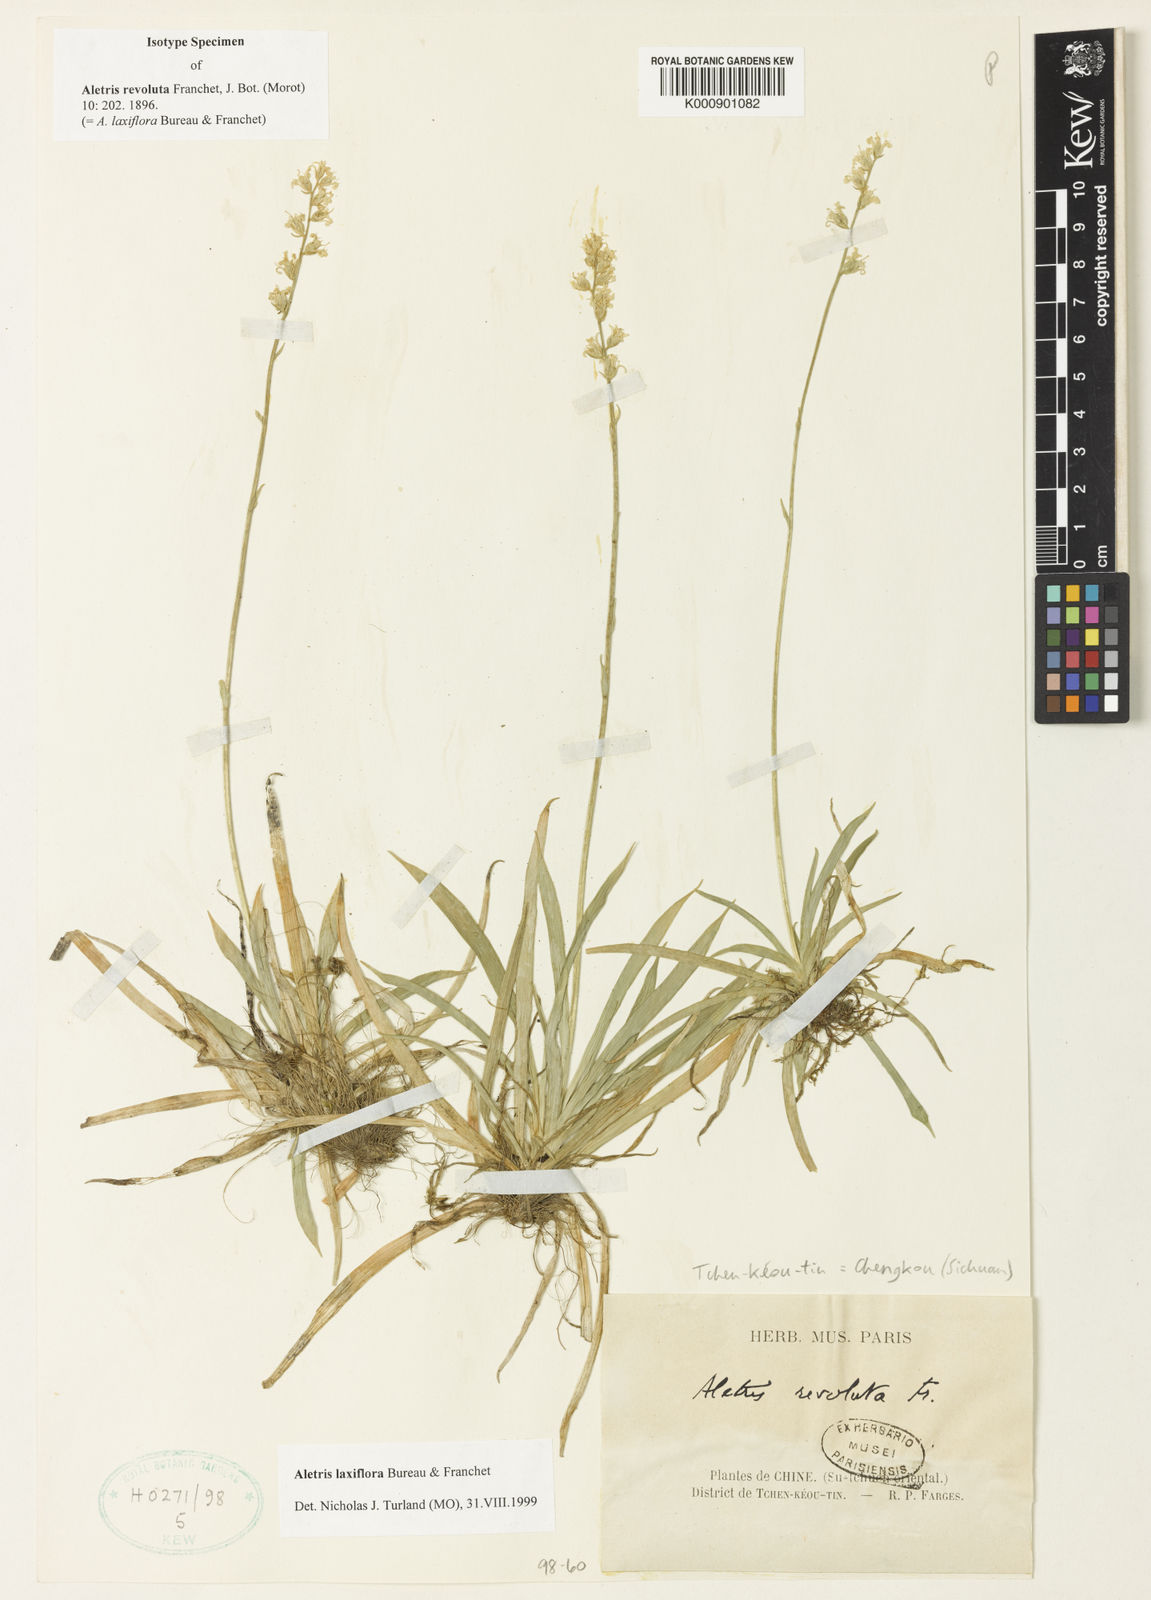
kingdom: Plantae
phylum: Tracheophyta
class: Liliopsida
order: Dioscoreales
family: Nartheciaceae
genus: Aletris
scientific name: Aletris laxiflora
